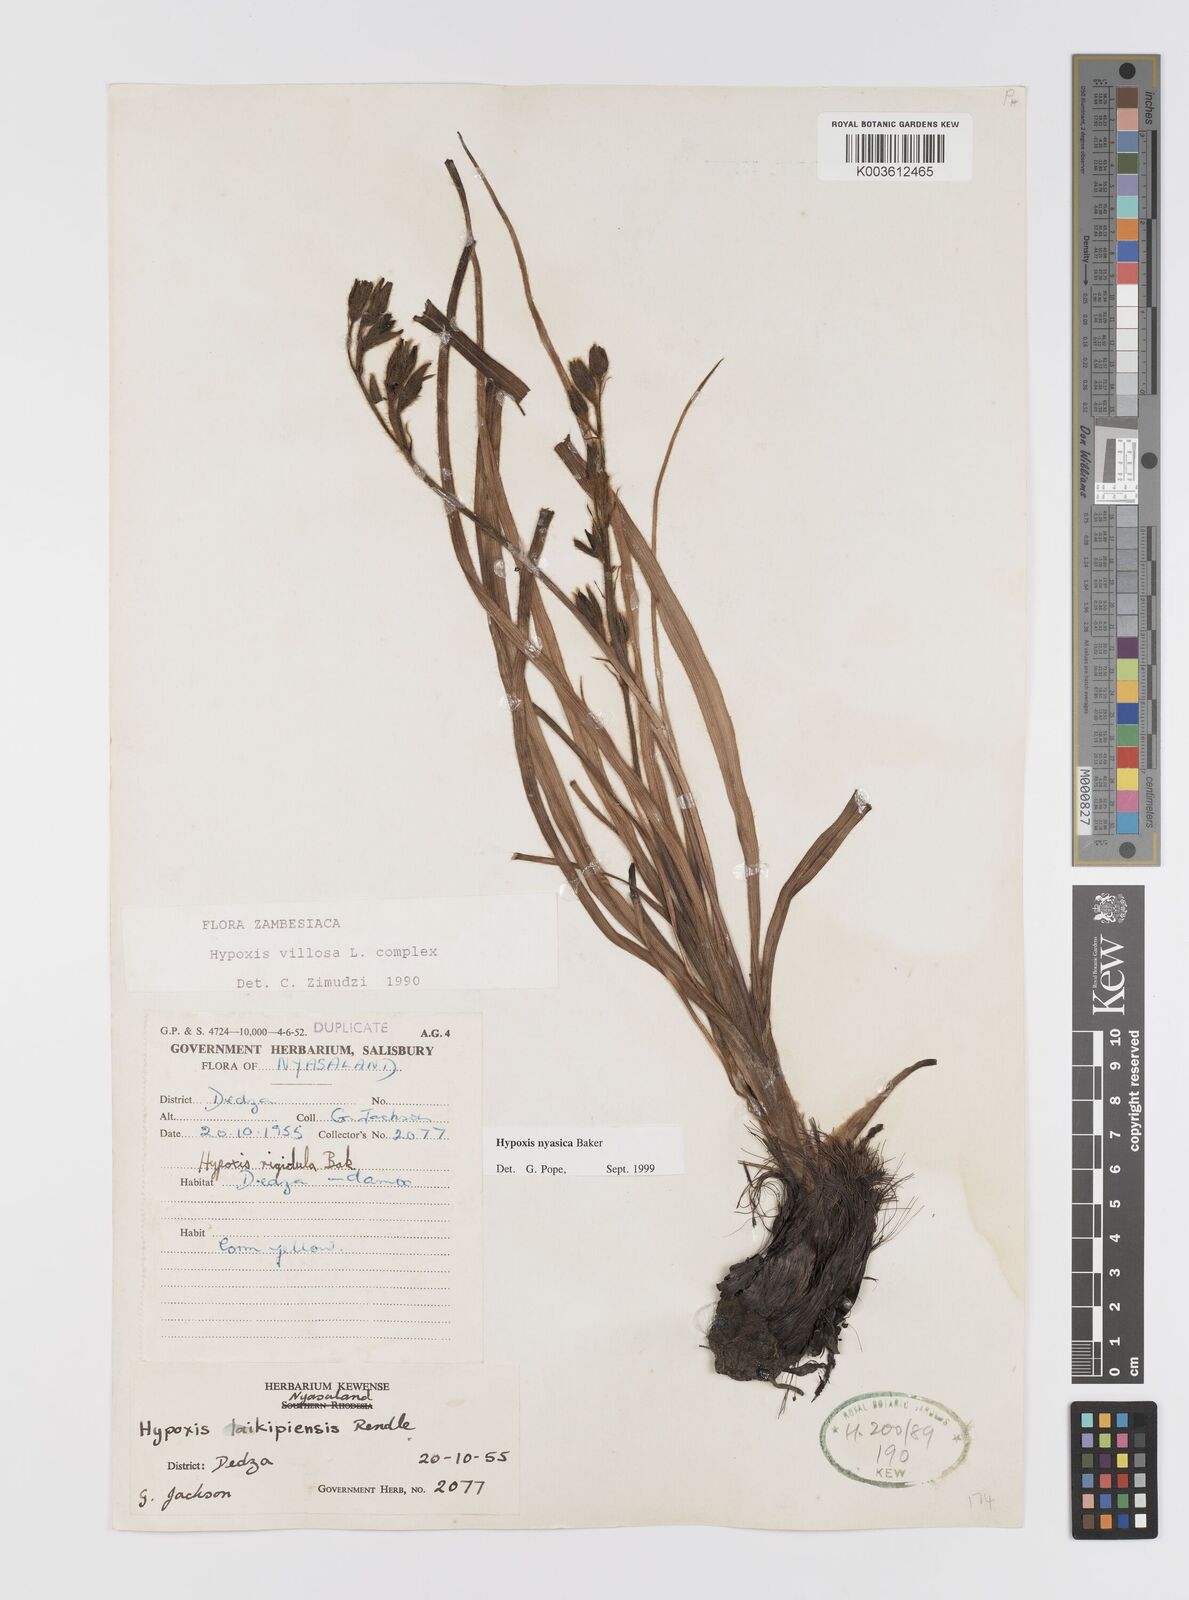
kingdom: Plantae
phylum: Tracheophyta
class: Liliopsida
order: Asparagales
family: Hypoxidaceae
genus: Hypoxis
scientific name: Hypoxis nyasica
